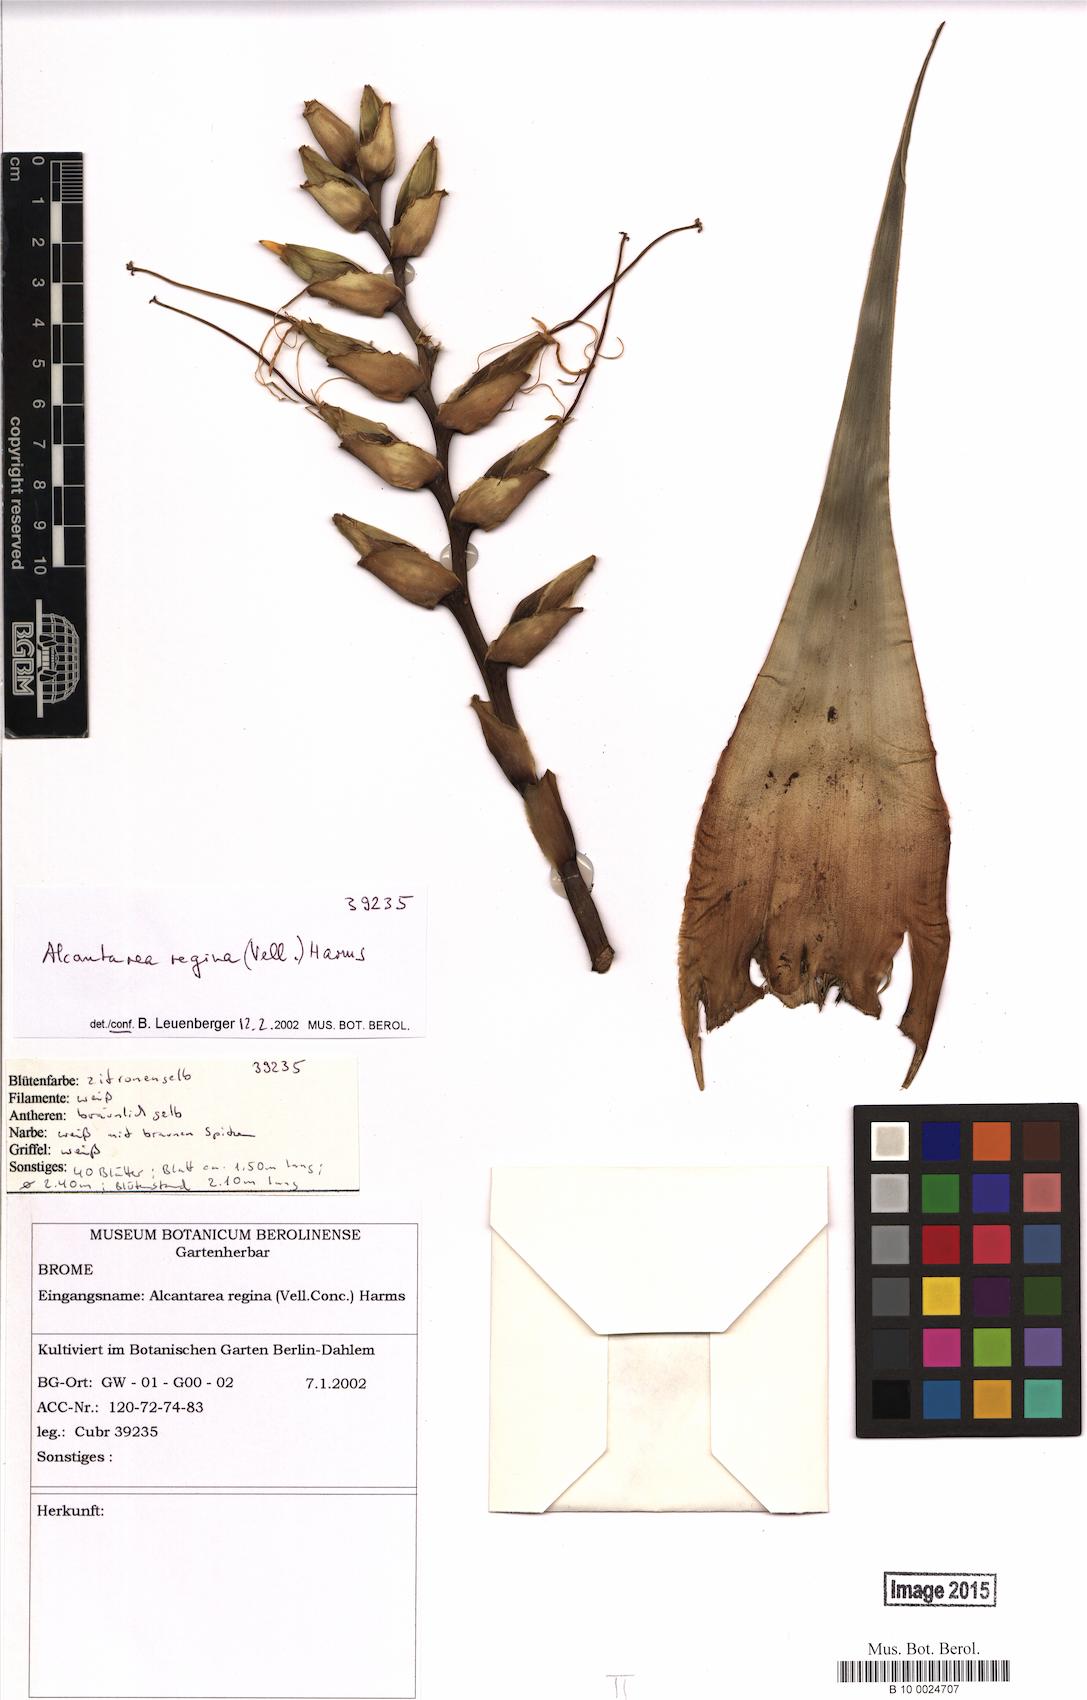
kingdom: Plantae
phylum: Tracheophyta
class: Liliopsida
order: Poales
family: Bromeliaceae
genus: Alcantarea
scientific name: Alcantarea regina
